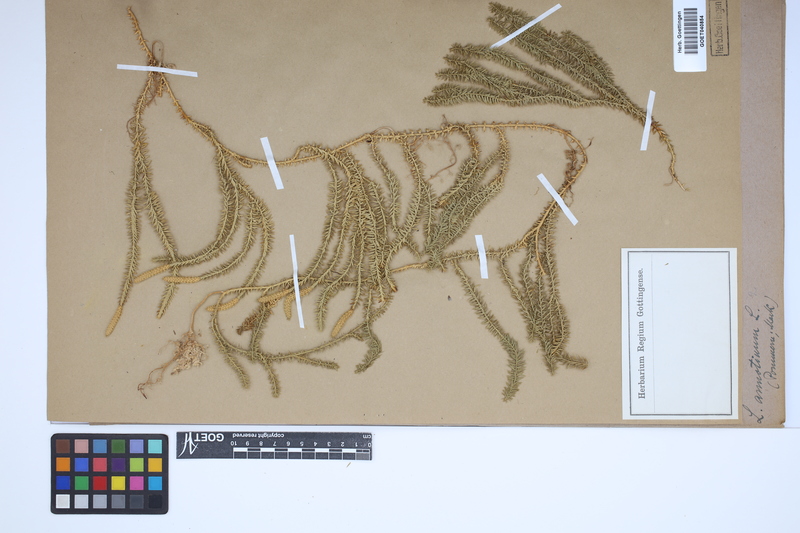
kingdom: Plantae
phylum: Tracheophyta
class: Lycopodiopsida
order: Lycopodiales
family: Lycopodiaceae
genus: Spinulum
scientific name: Spinulum annotinum
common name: Interrupted club-moss
